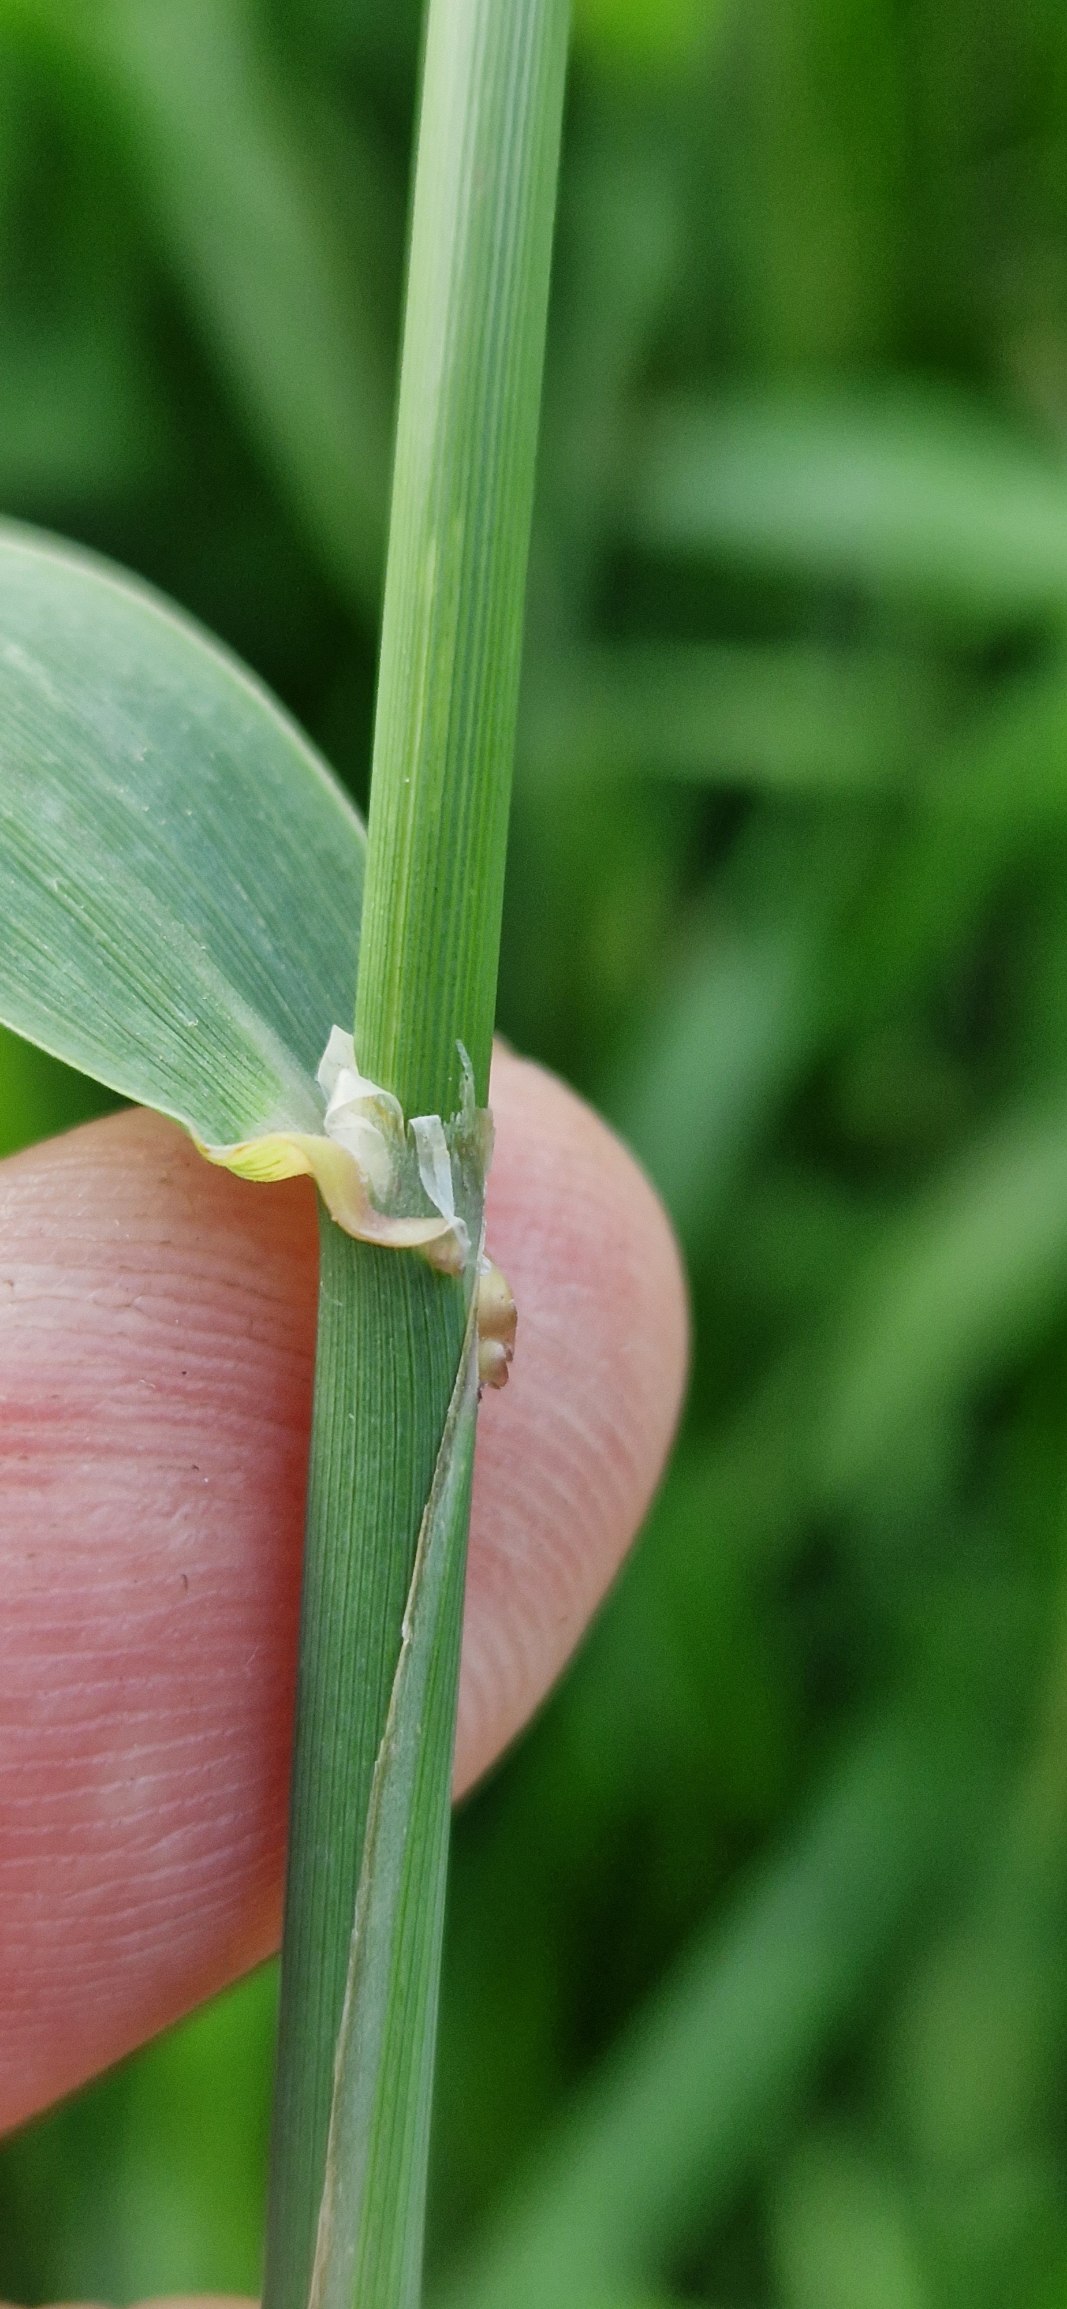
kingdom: Plantae
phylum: Tracheophyta
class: Liliopsida
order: Poales
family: Poaceae
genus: Phalaris
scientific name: Phalaris arundinacea
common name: Rørgræs
